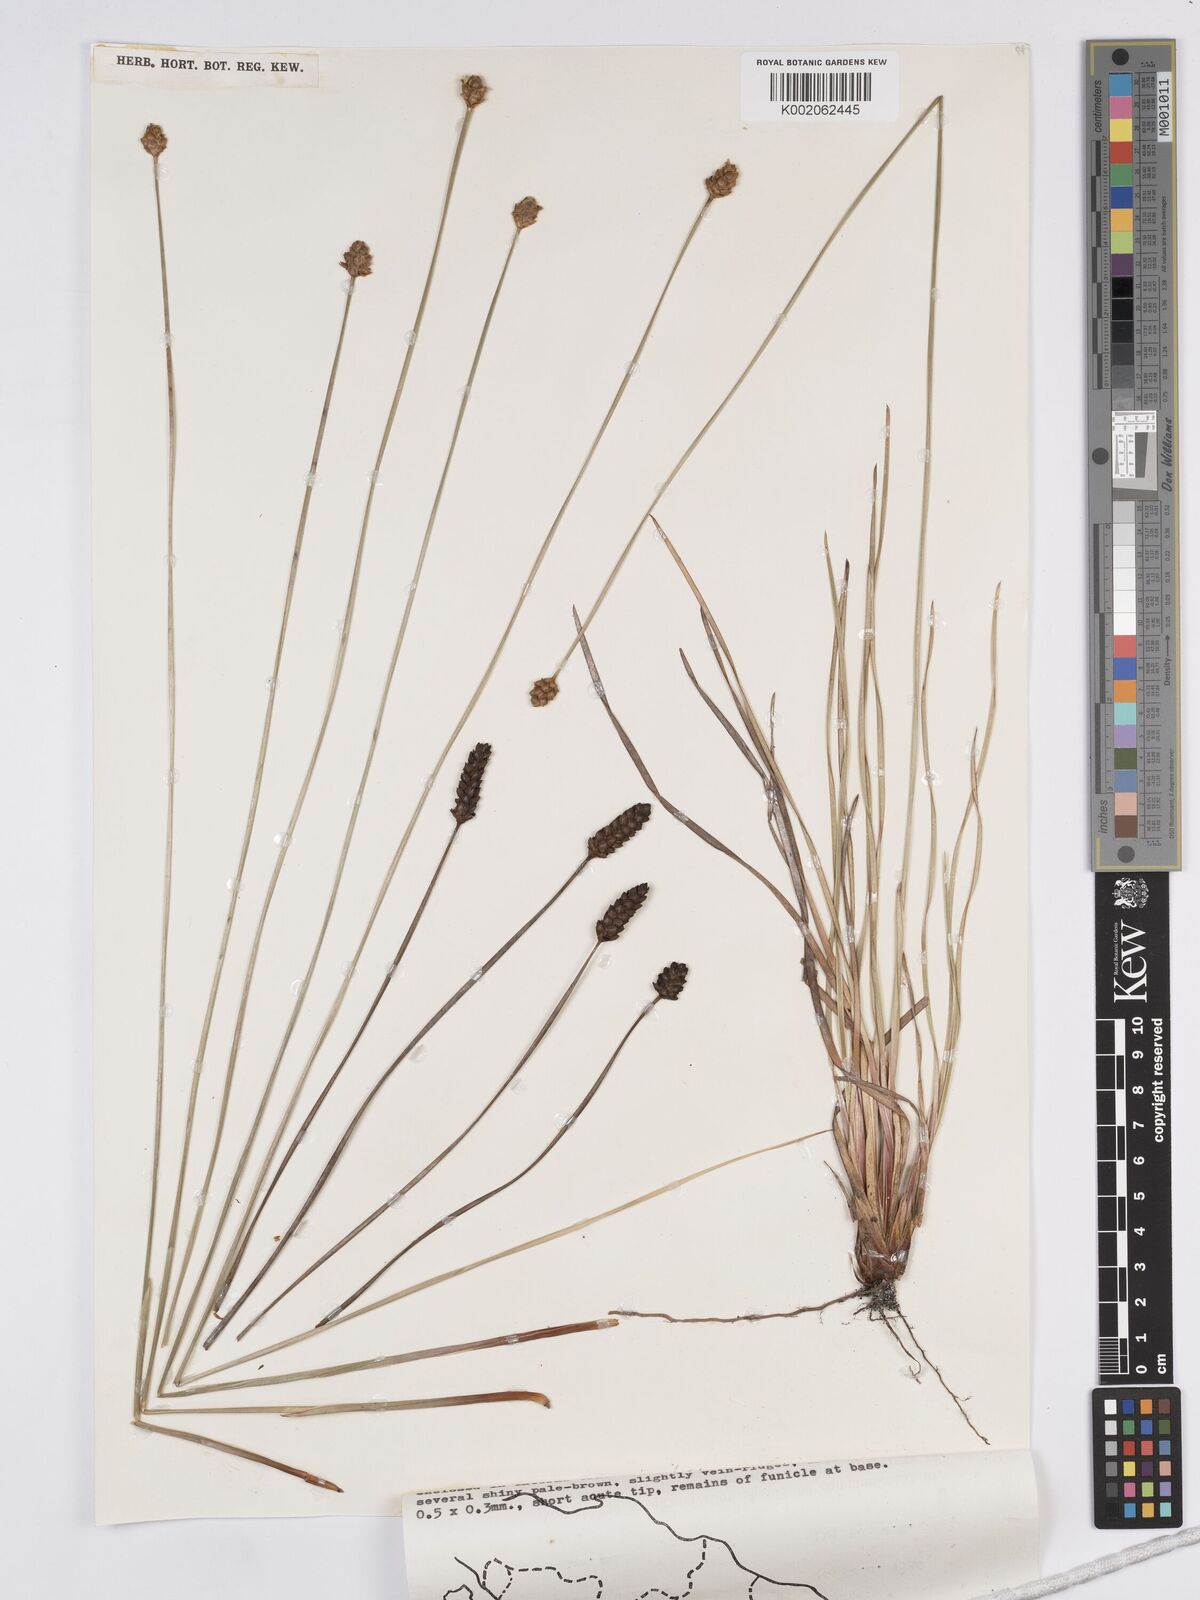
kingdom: Plantae
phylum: Tracheophyta
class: Liliopsida
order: Poales
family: Xyridaceae
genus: Xyris
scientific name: Xyris complanata
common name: Hawai'i yelloweyed grass
